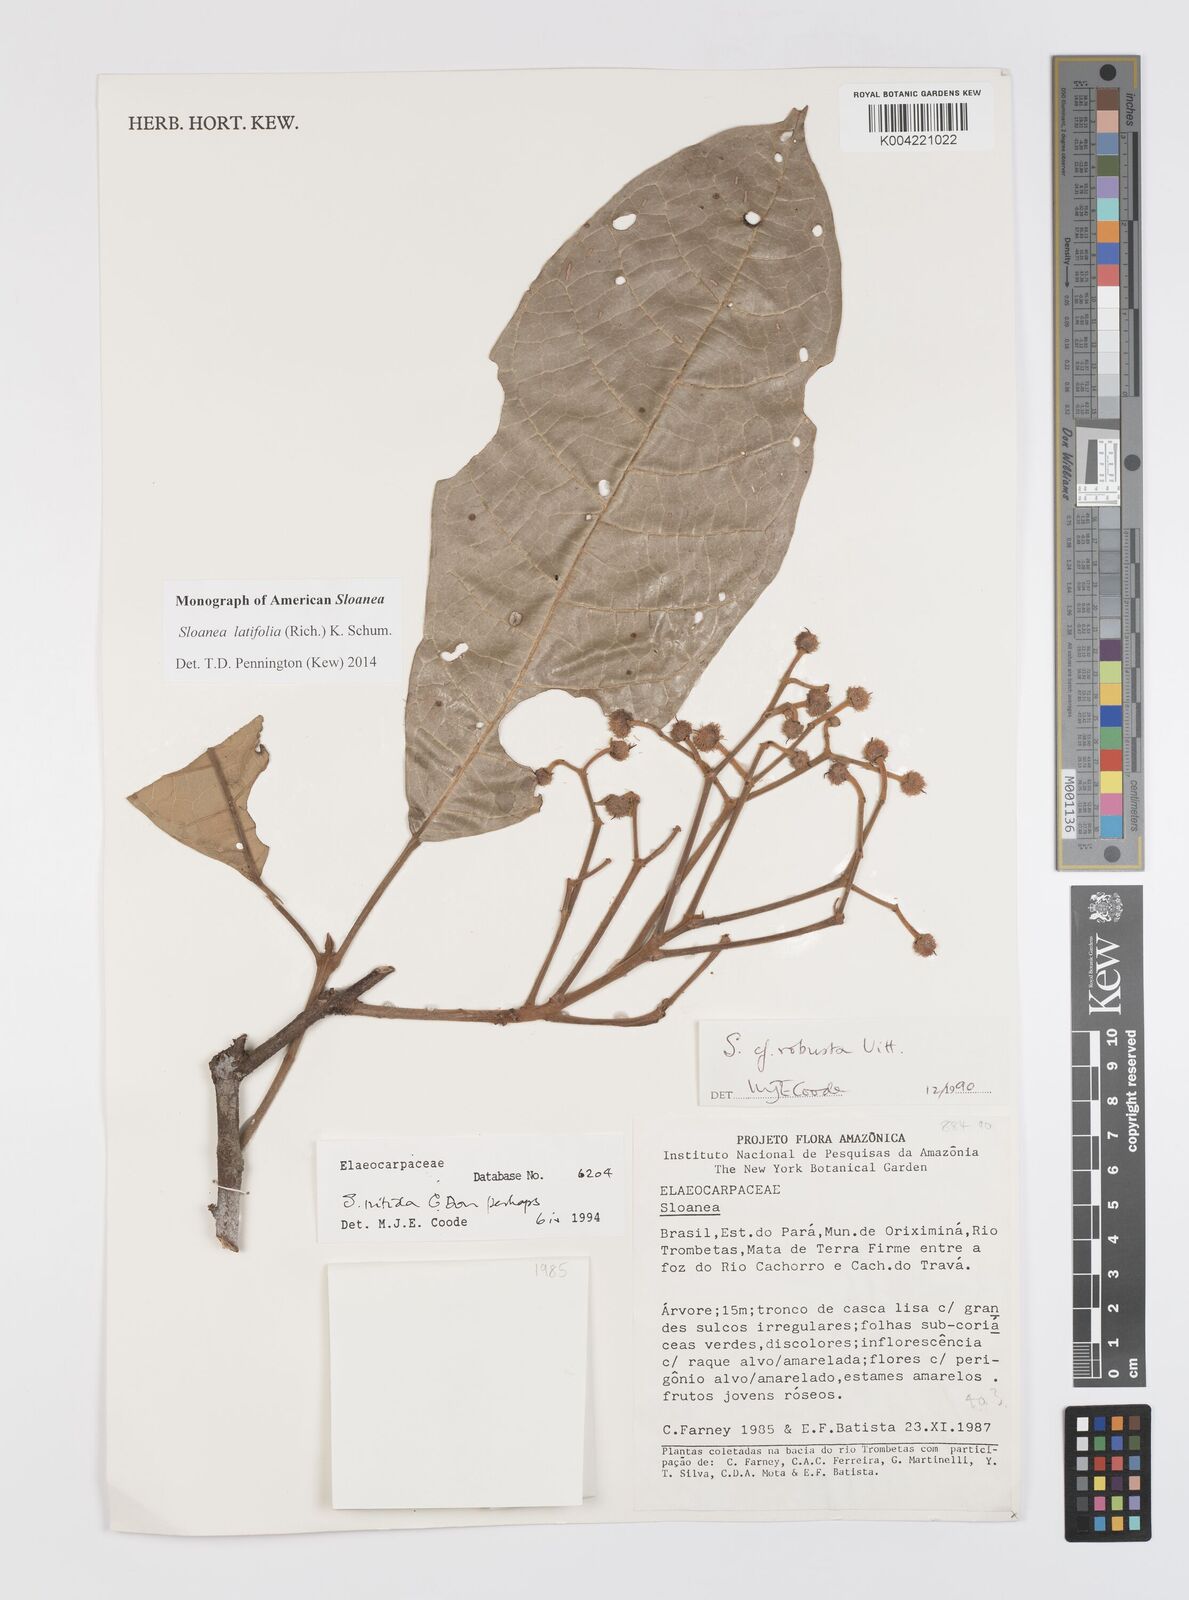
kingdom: Plantae
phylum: Tracheophyta
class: Magnoliopsida
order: Oxalidales
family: Elaeocarpaceae
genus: Sloanea
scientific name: Sloanea latifolia
